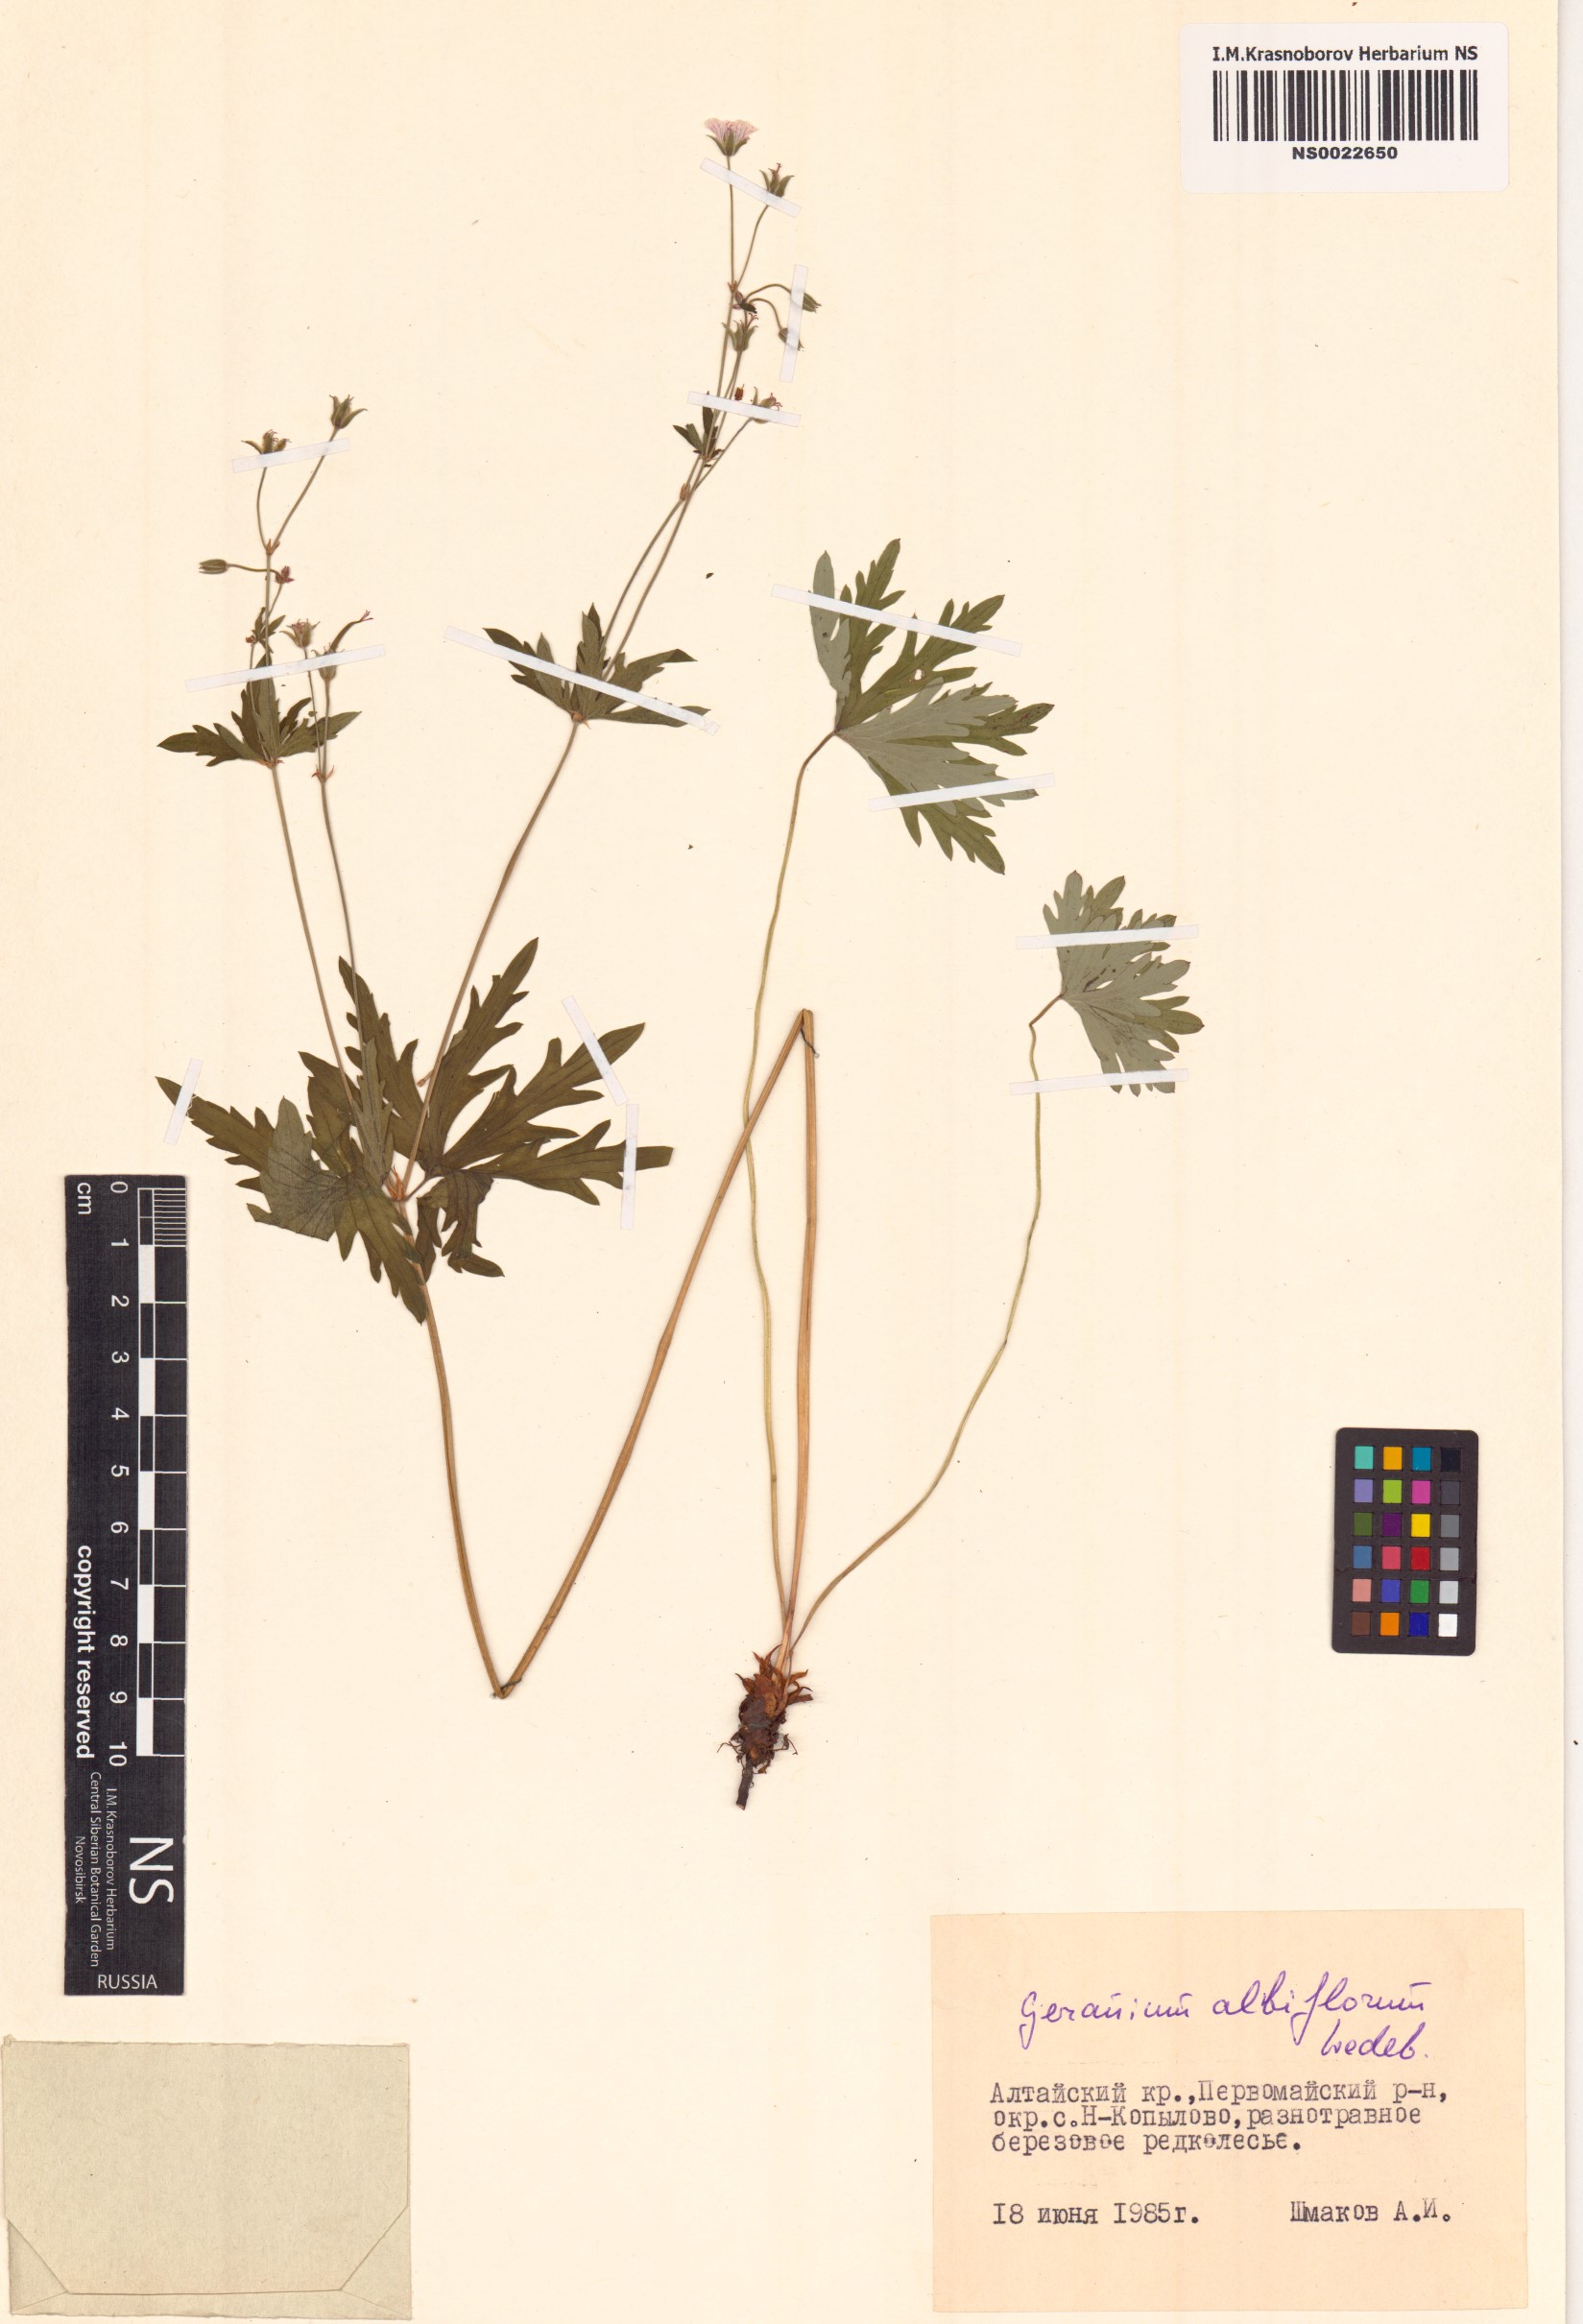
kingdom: Plantae
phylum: Tracheophyta
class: Magnoliopsida
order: Geraniales
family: Geraniaceae
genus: Geranium
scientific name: Geranium albiflorum
